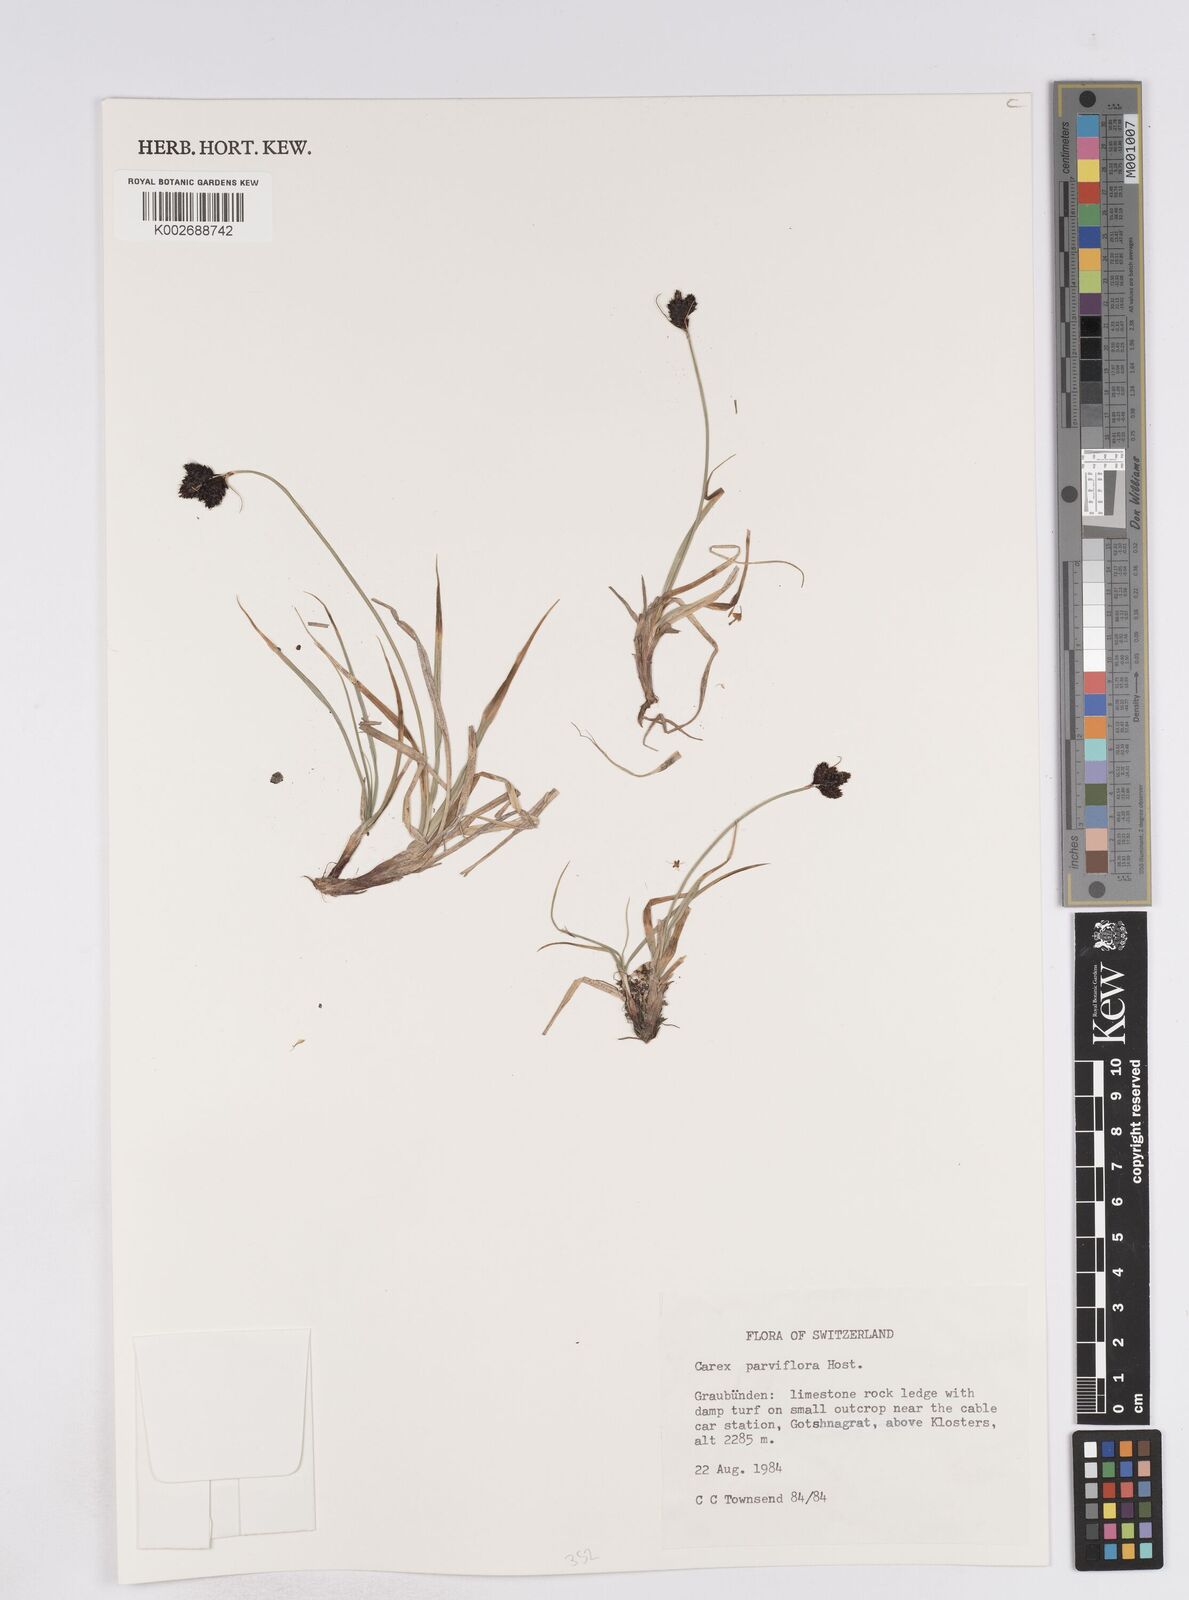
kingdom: Plantae
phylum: Tracheophyta
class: Liliopsida
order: Poales
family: Cyperaceae
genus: Carex
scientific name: Carex parviflora
